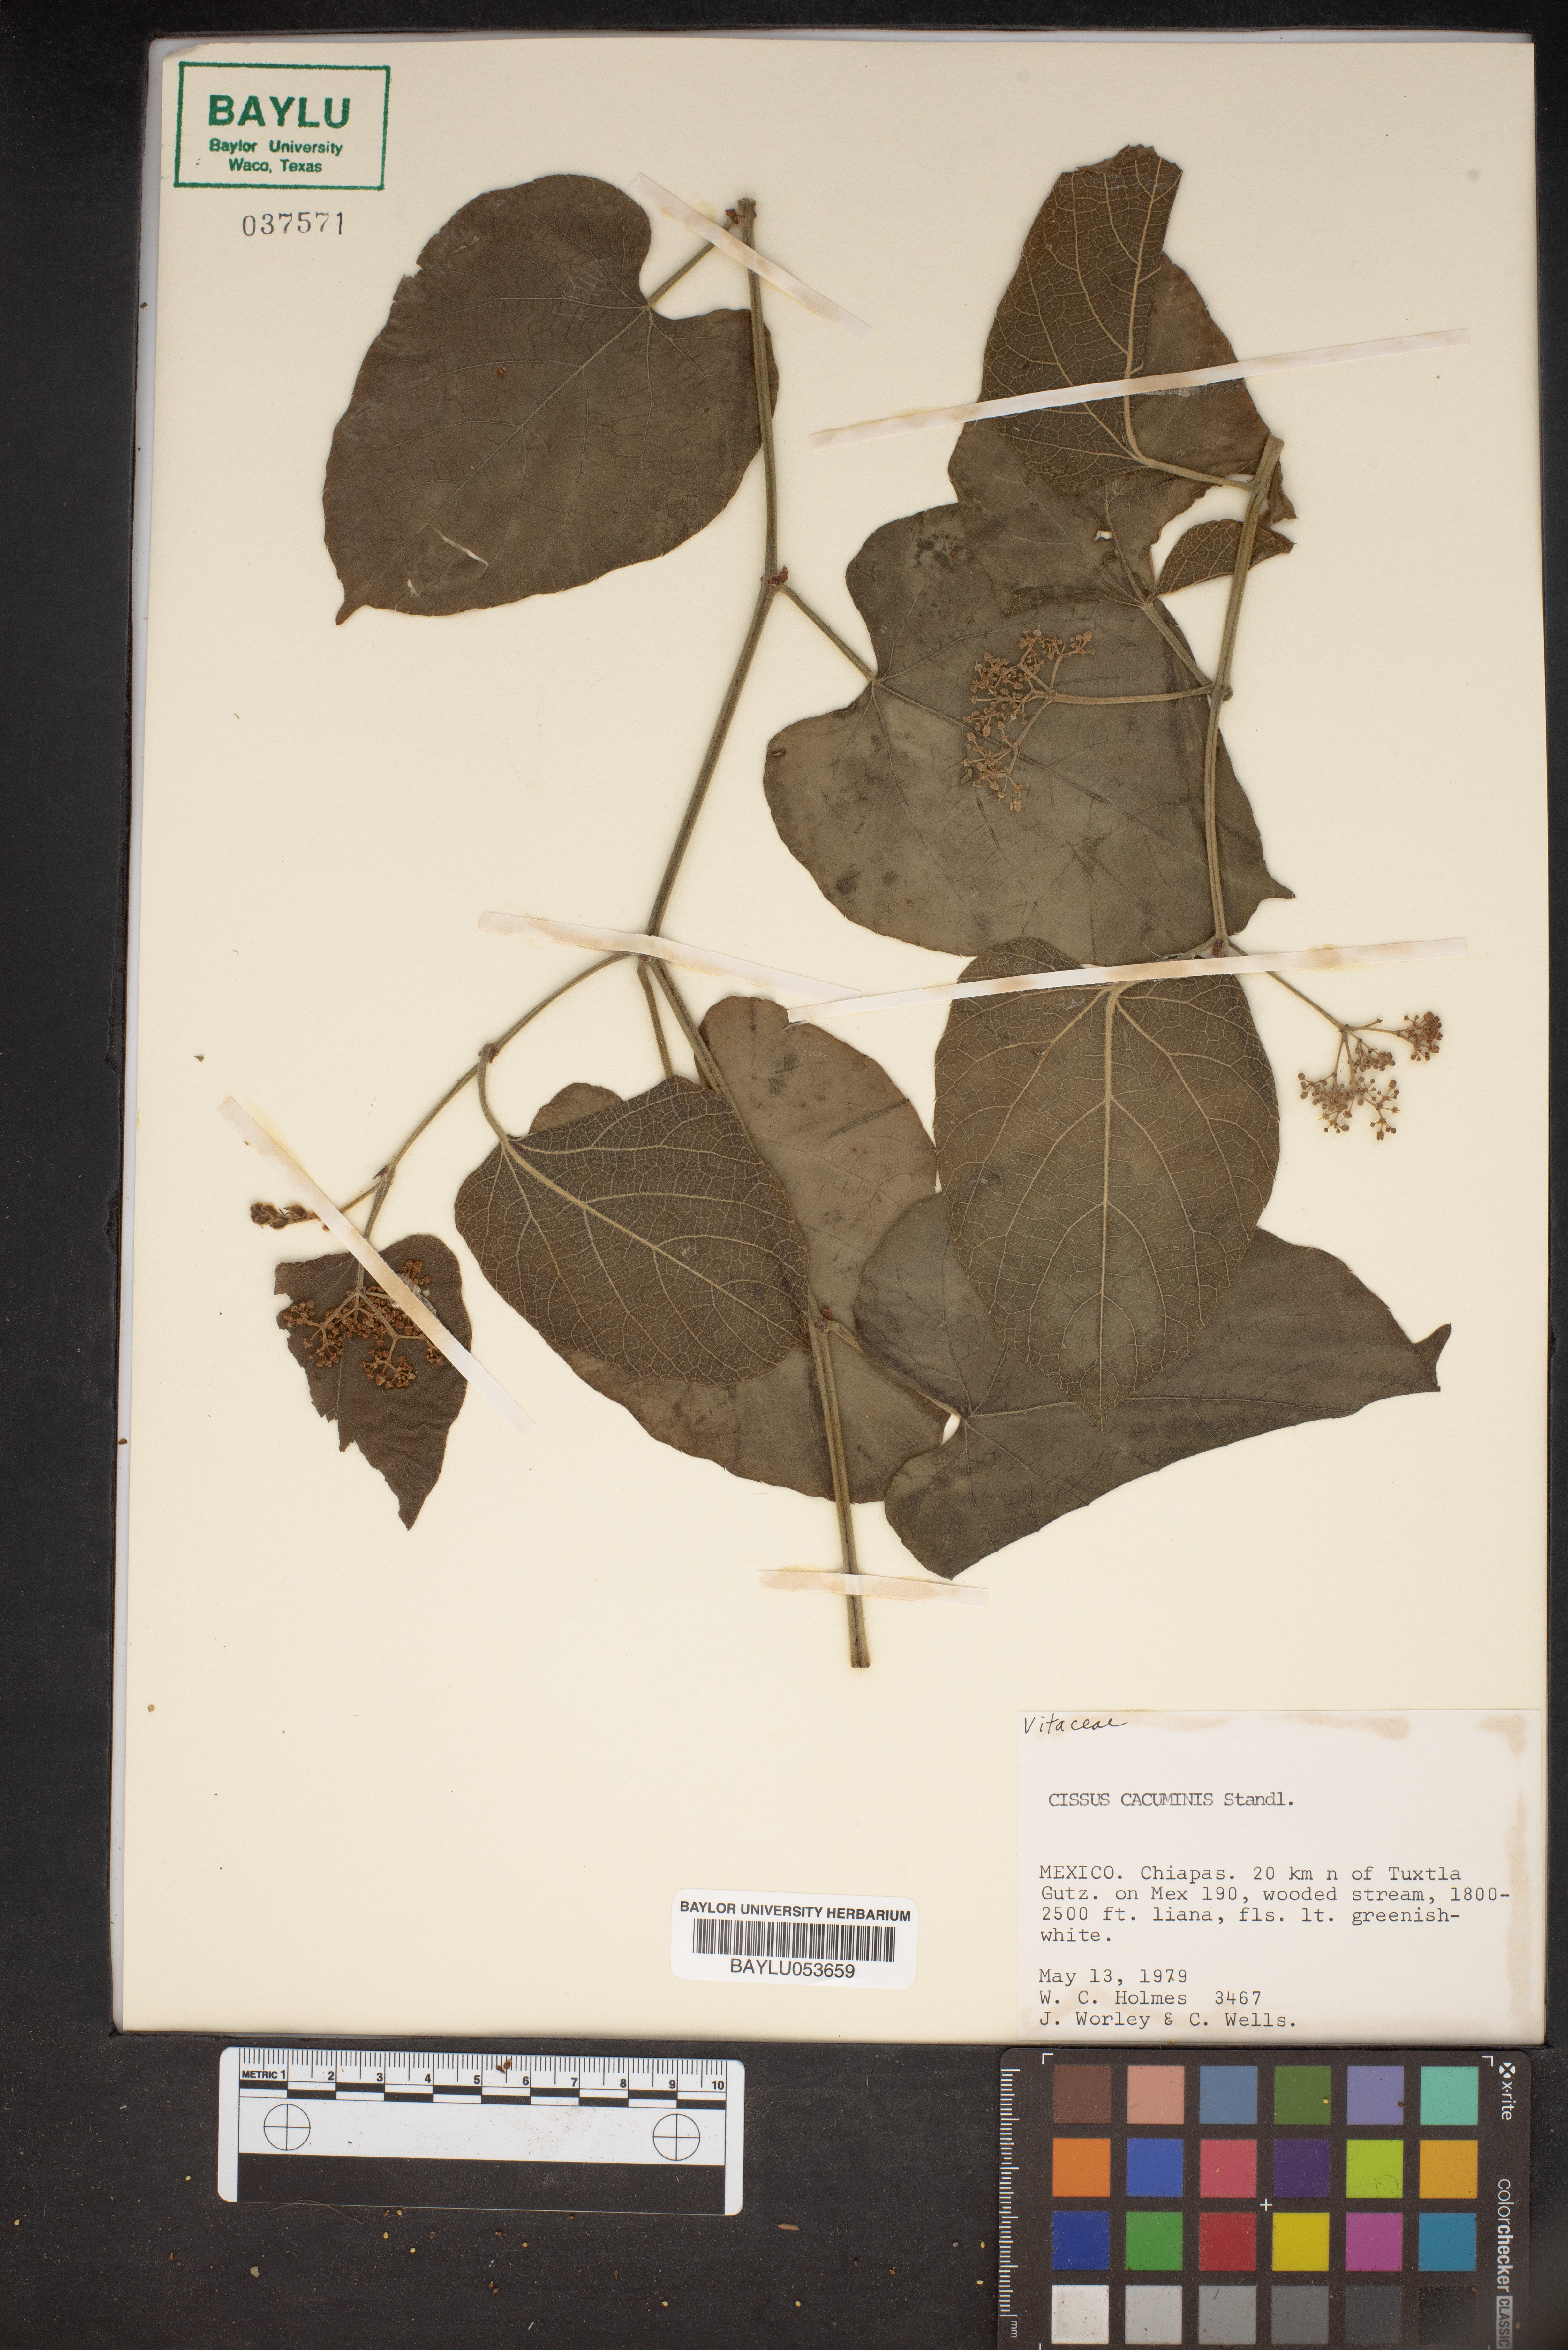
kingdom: Plantae
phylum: Tracheophyta
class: Magnoliopsida
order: Vitales
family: Vitaceae
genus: Cissus
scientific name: Cissus cacuminis
